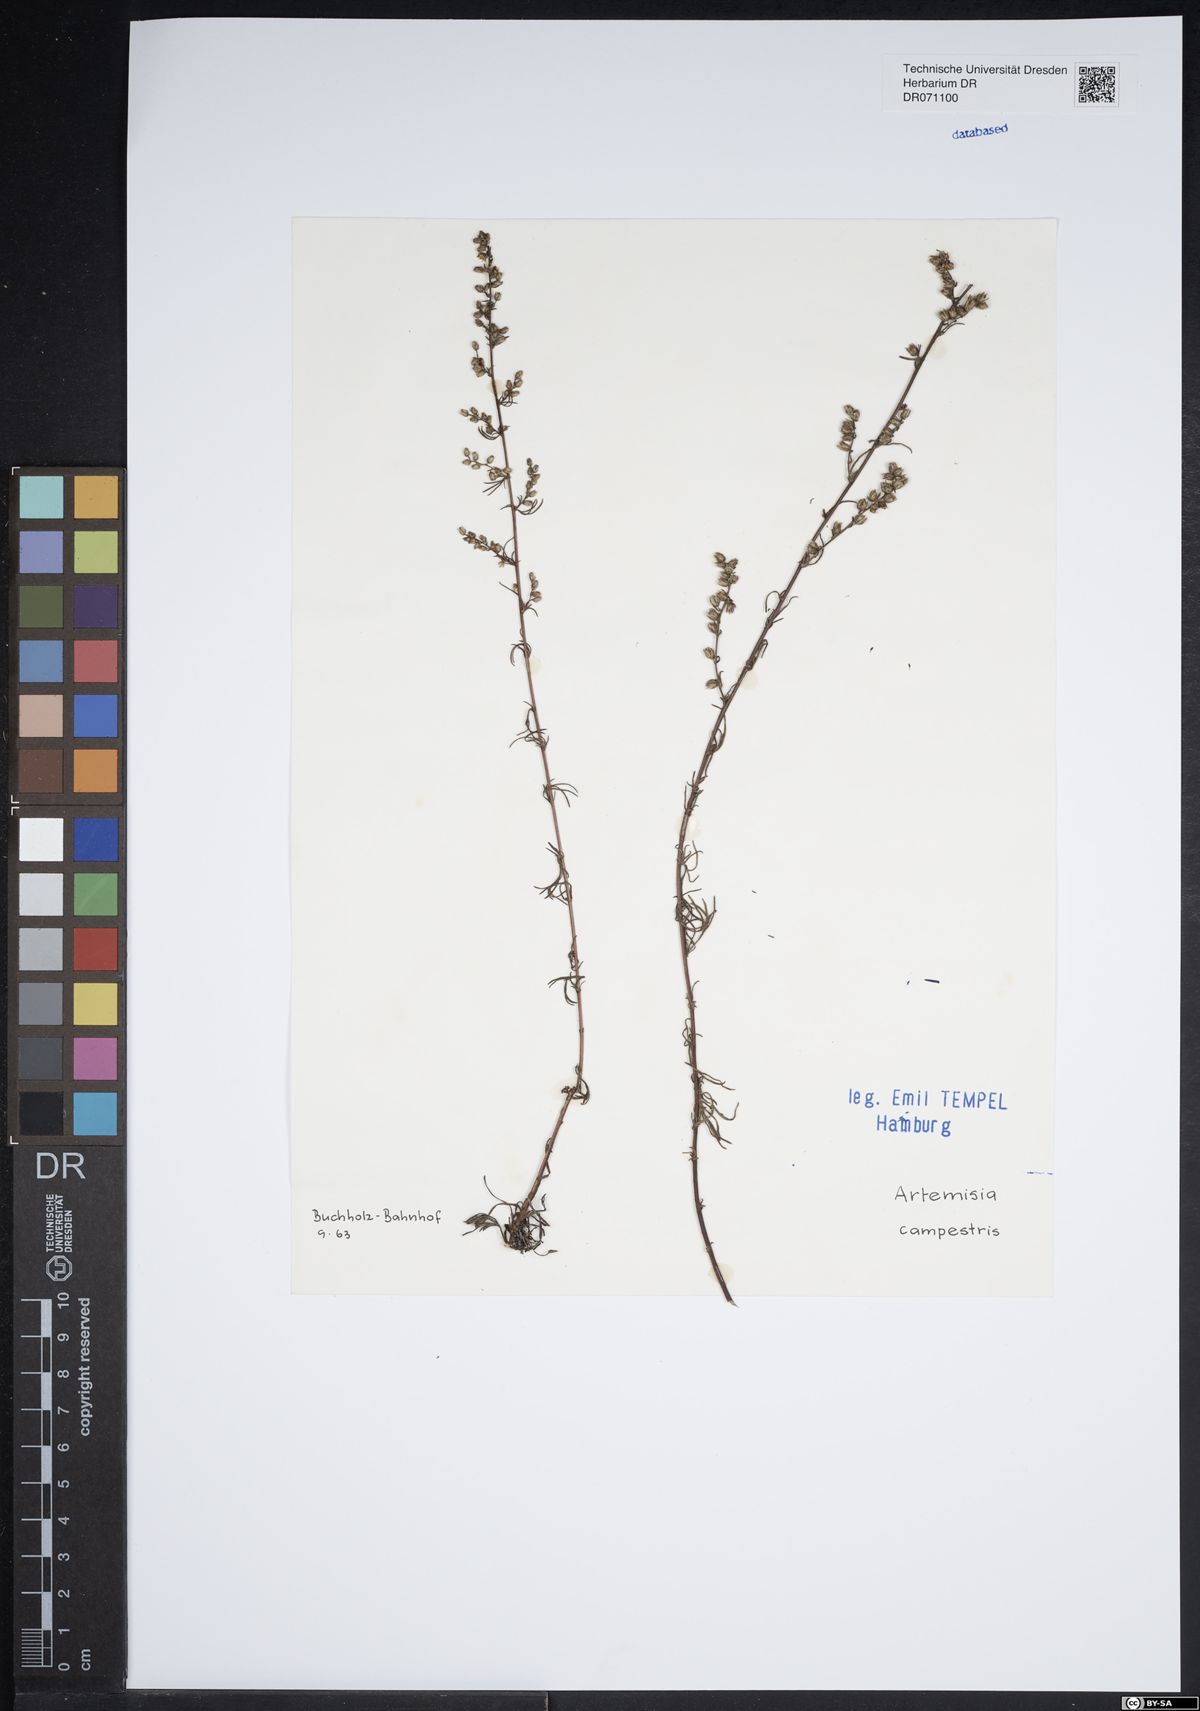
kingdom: Plantae
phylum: Tracheophyta
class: Magnoliopsida
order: Asterales
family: Asteraceae
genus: Artemisia
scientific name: Artemisia campestris
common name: Field wormwood
